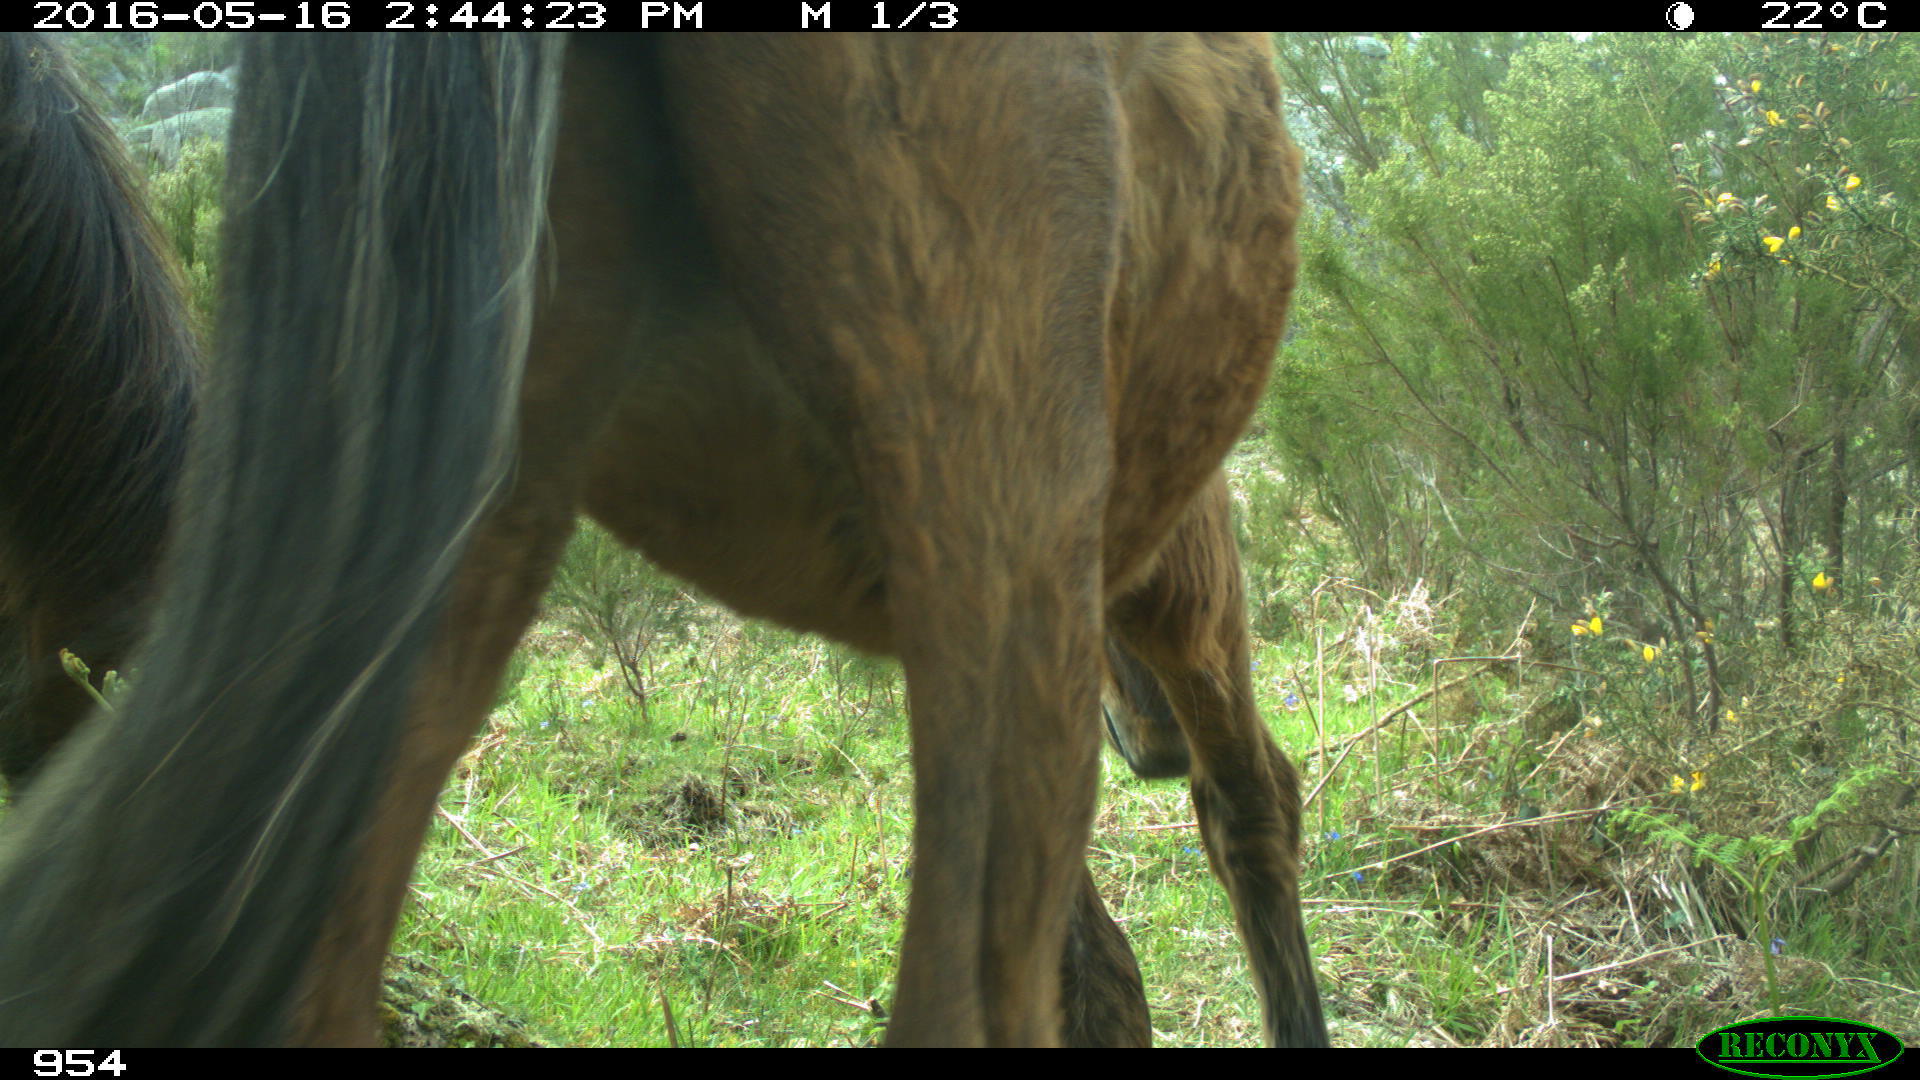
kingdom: Animalia
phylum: Chordata
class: Mammalia
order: Perissodactyla
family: Equidae
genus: Equus
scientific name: Equus caballus
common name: Horse
